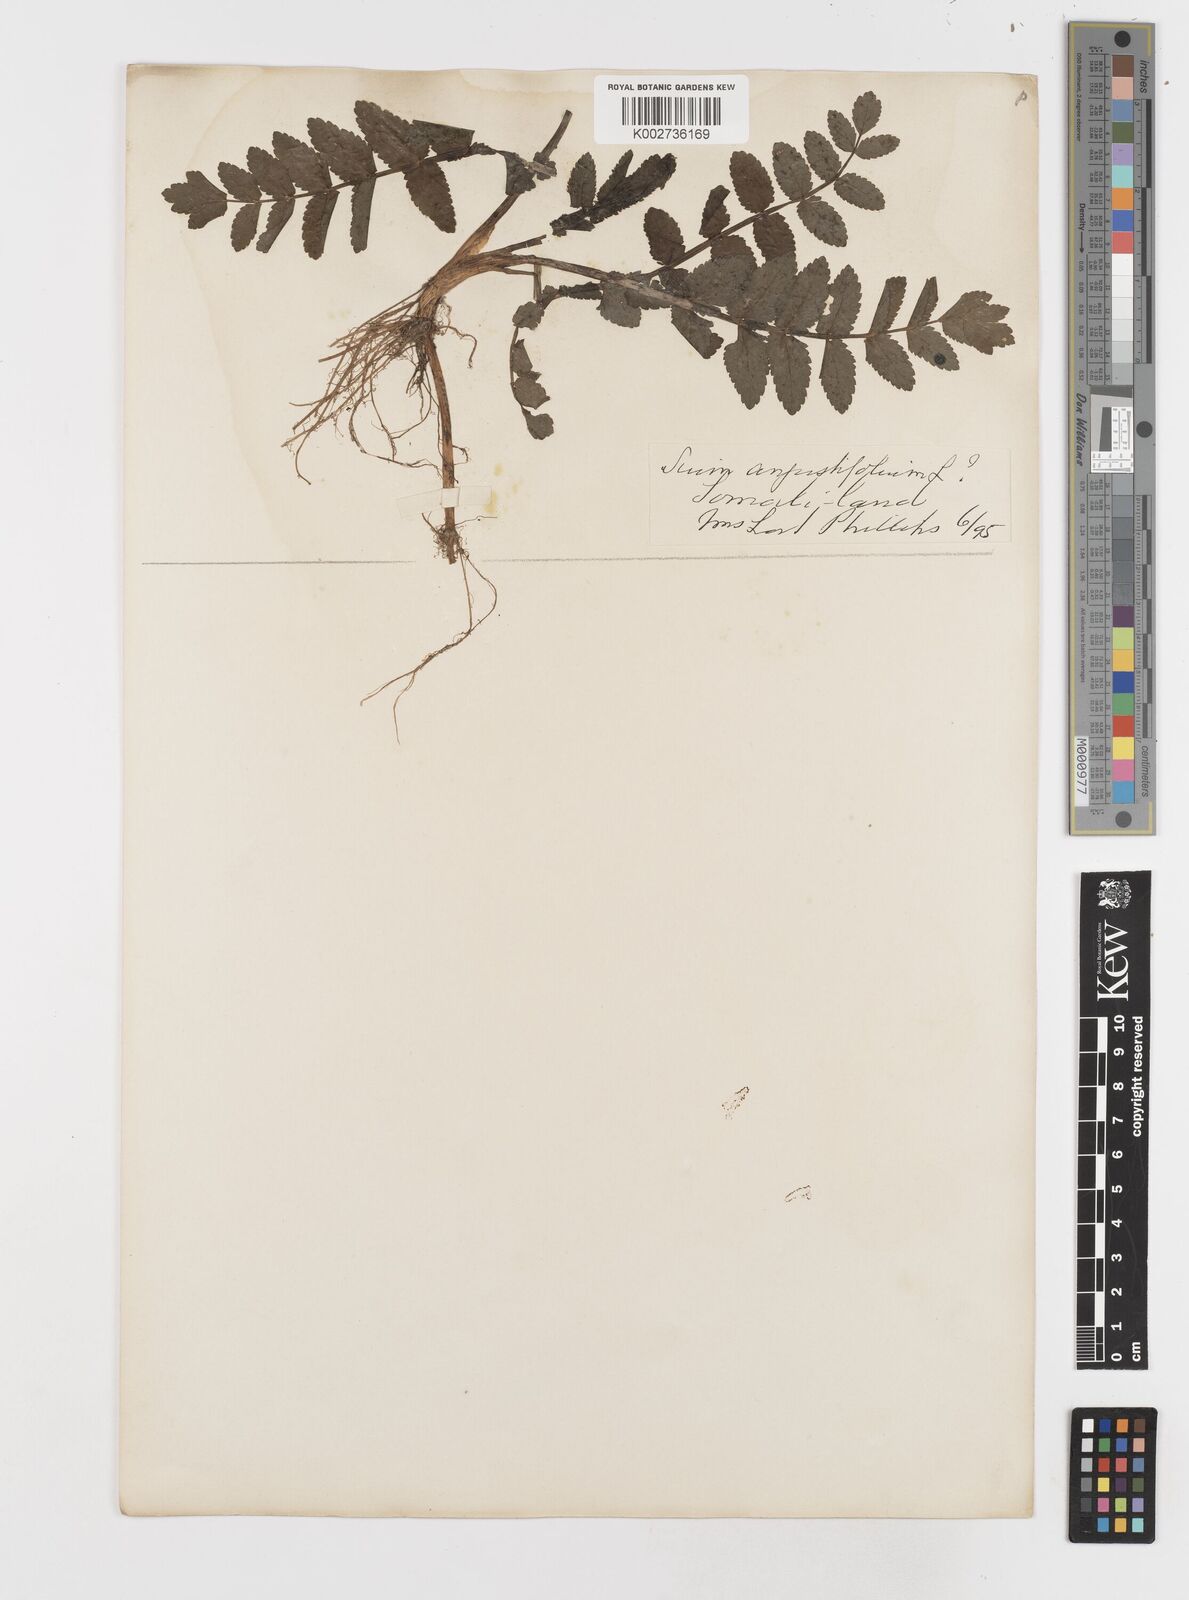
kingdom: Plantae
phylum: Tracheophyta
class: Magnoliopsida
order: Apiales
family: Apiaceae
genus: Berula
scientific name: Berula erecta
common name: Lesser water-parsnip
